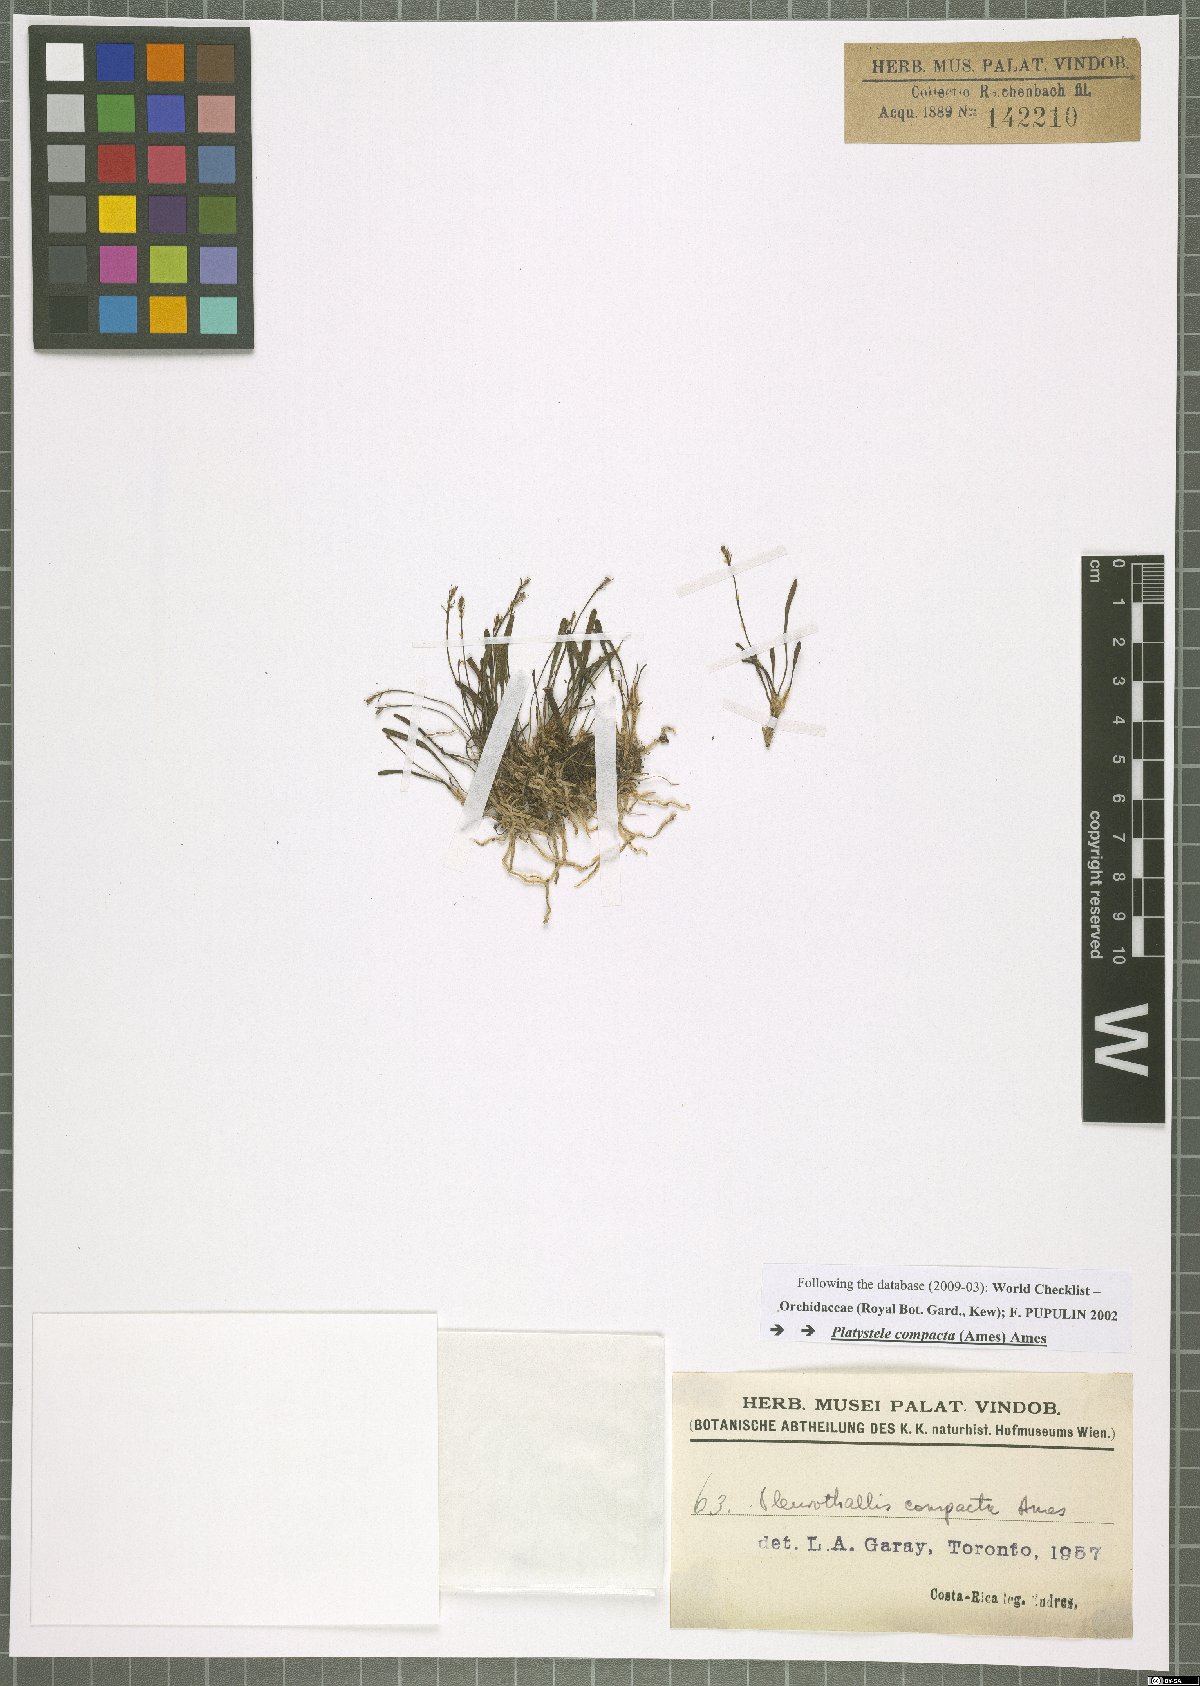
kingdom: Plantae
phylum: Tracheophyta
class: Liliopsida
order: Asparagales
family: Orchidaceae
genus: Platystele
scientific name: Platystele compacta
